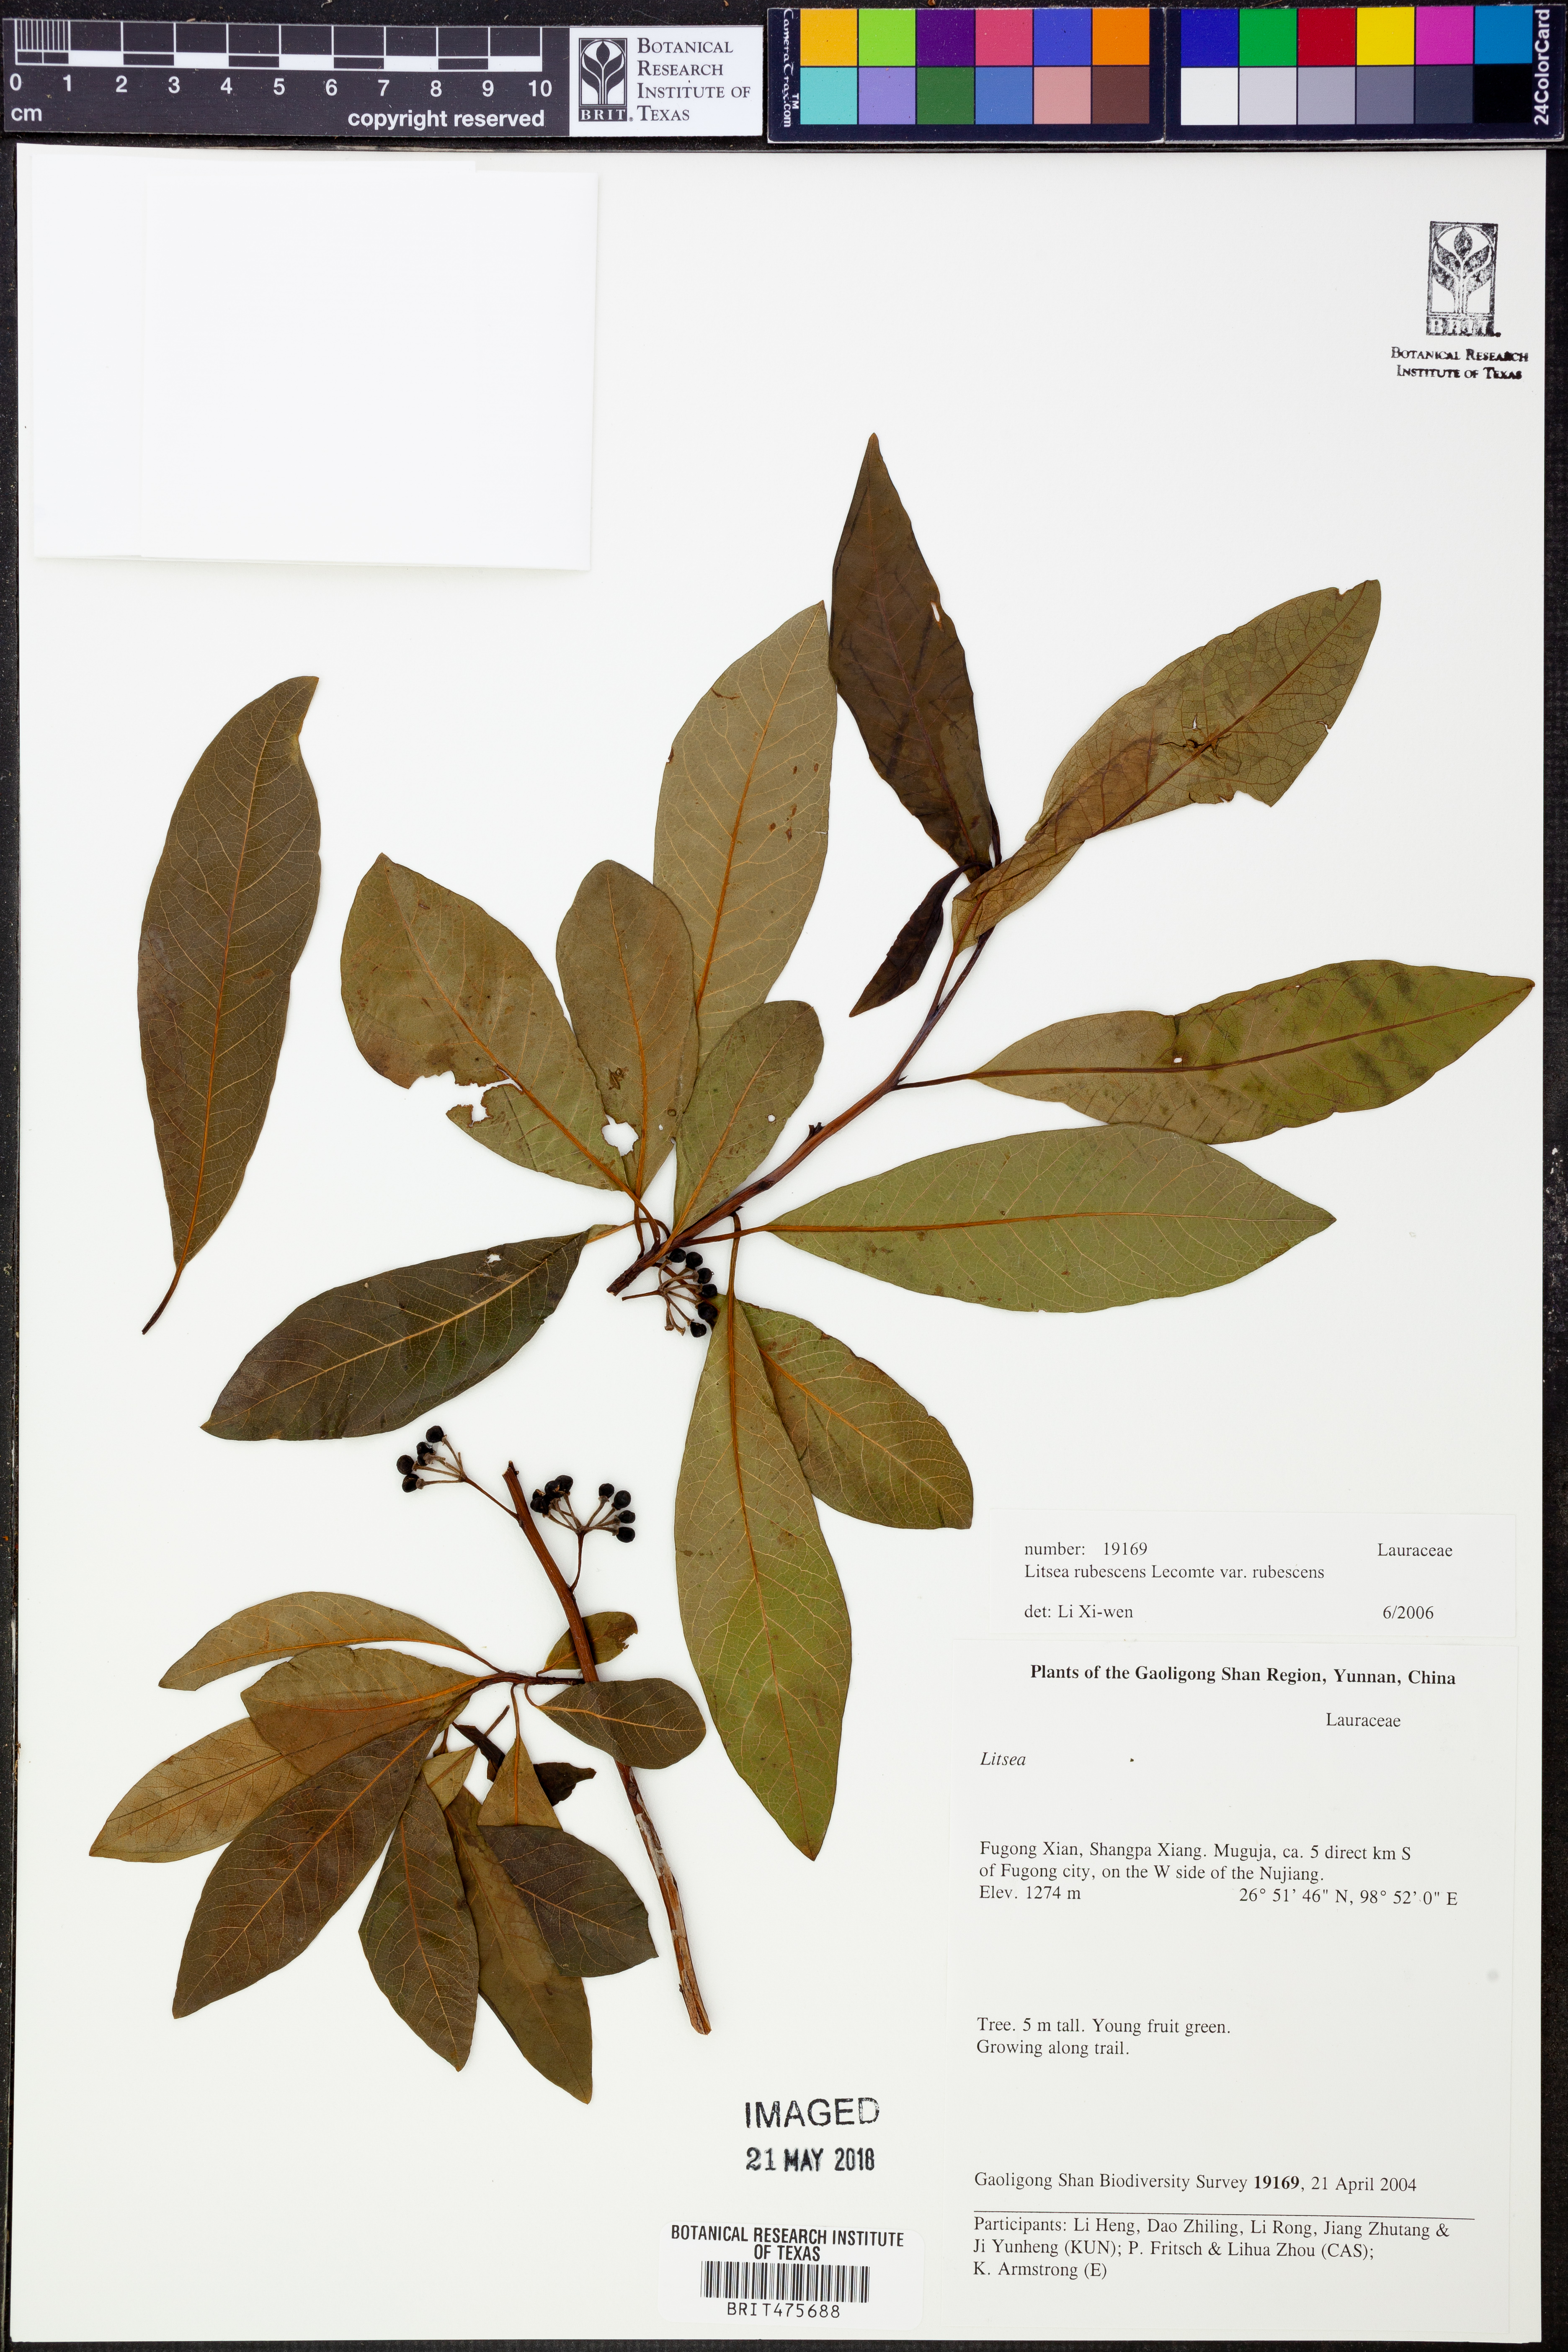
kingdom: Plantae
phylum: Tracheophyta
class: Magnoliopsida
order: Laurales
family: Lauraceae
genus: Litsea
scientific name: Litsea rubescens
